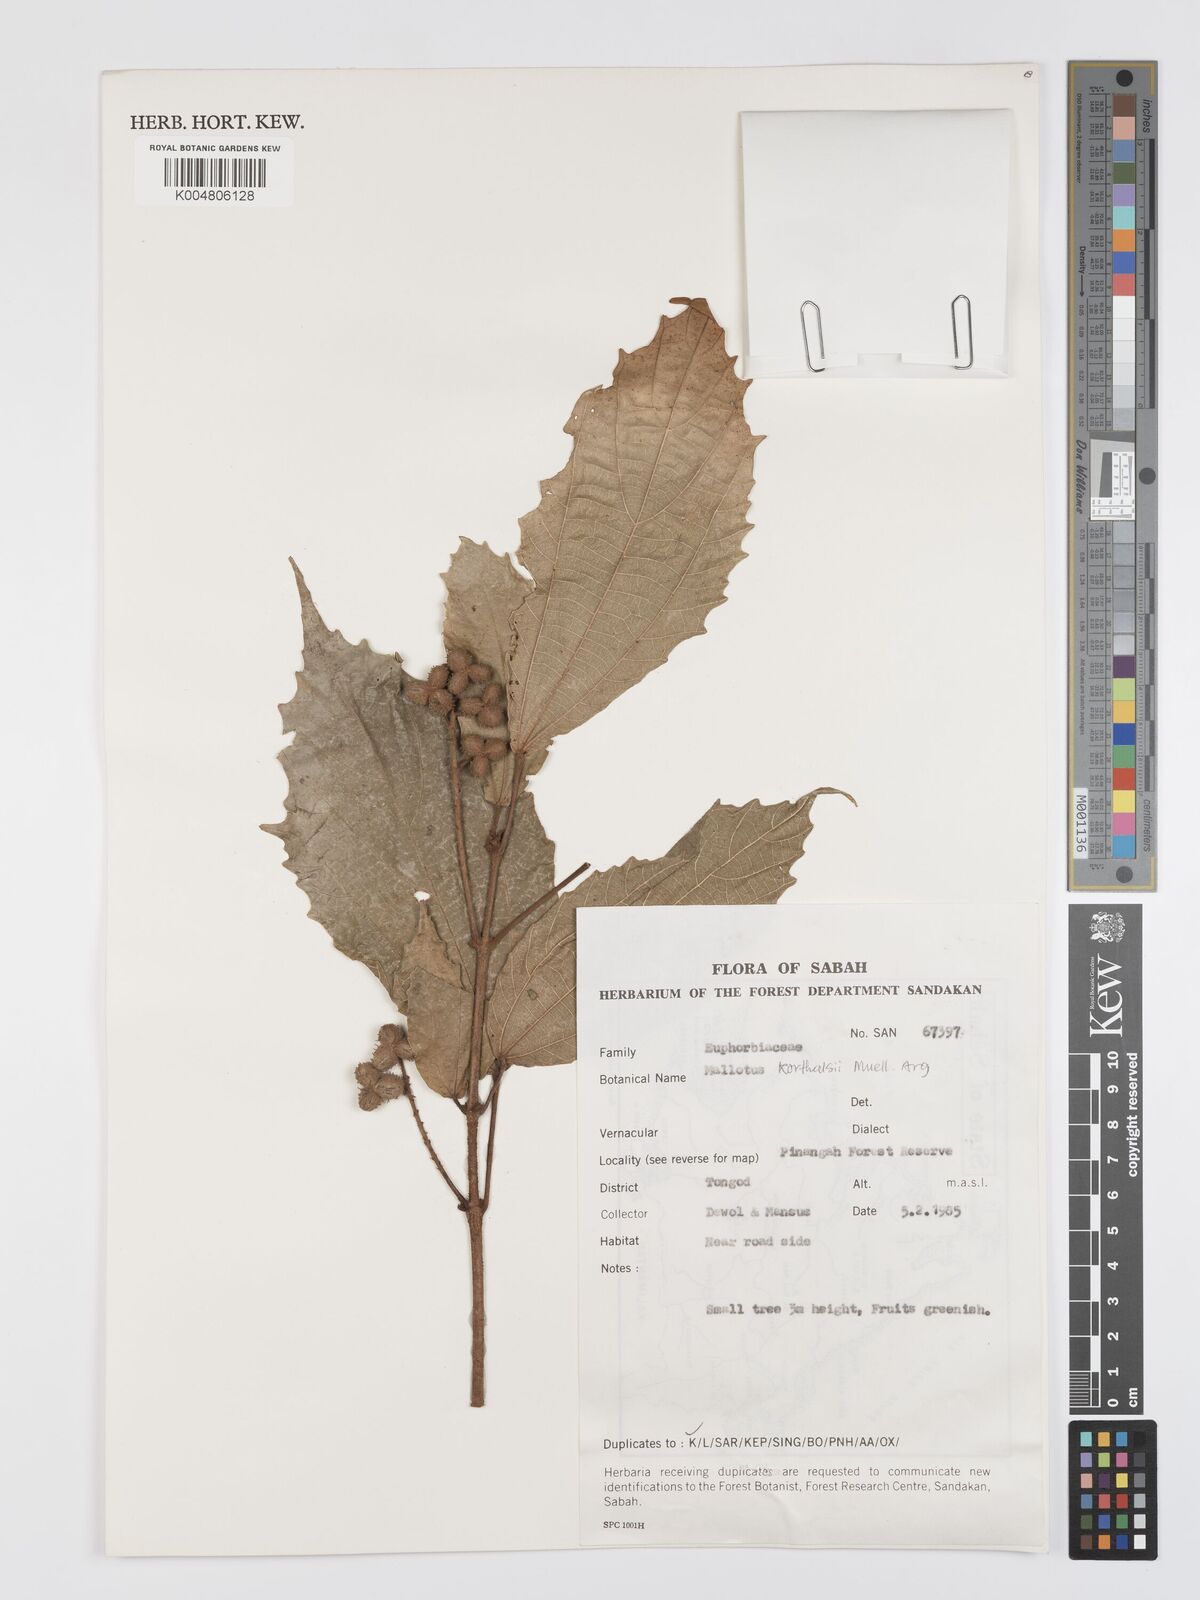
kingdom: Plantae
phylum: Tracheophyta
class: Magnoliopsida
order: Malpighiales
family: Euphorbiaceae
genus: Mallotus
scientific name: Mallotus korthalsii
